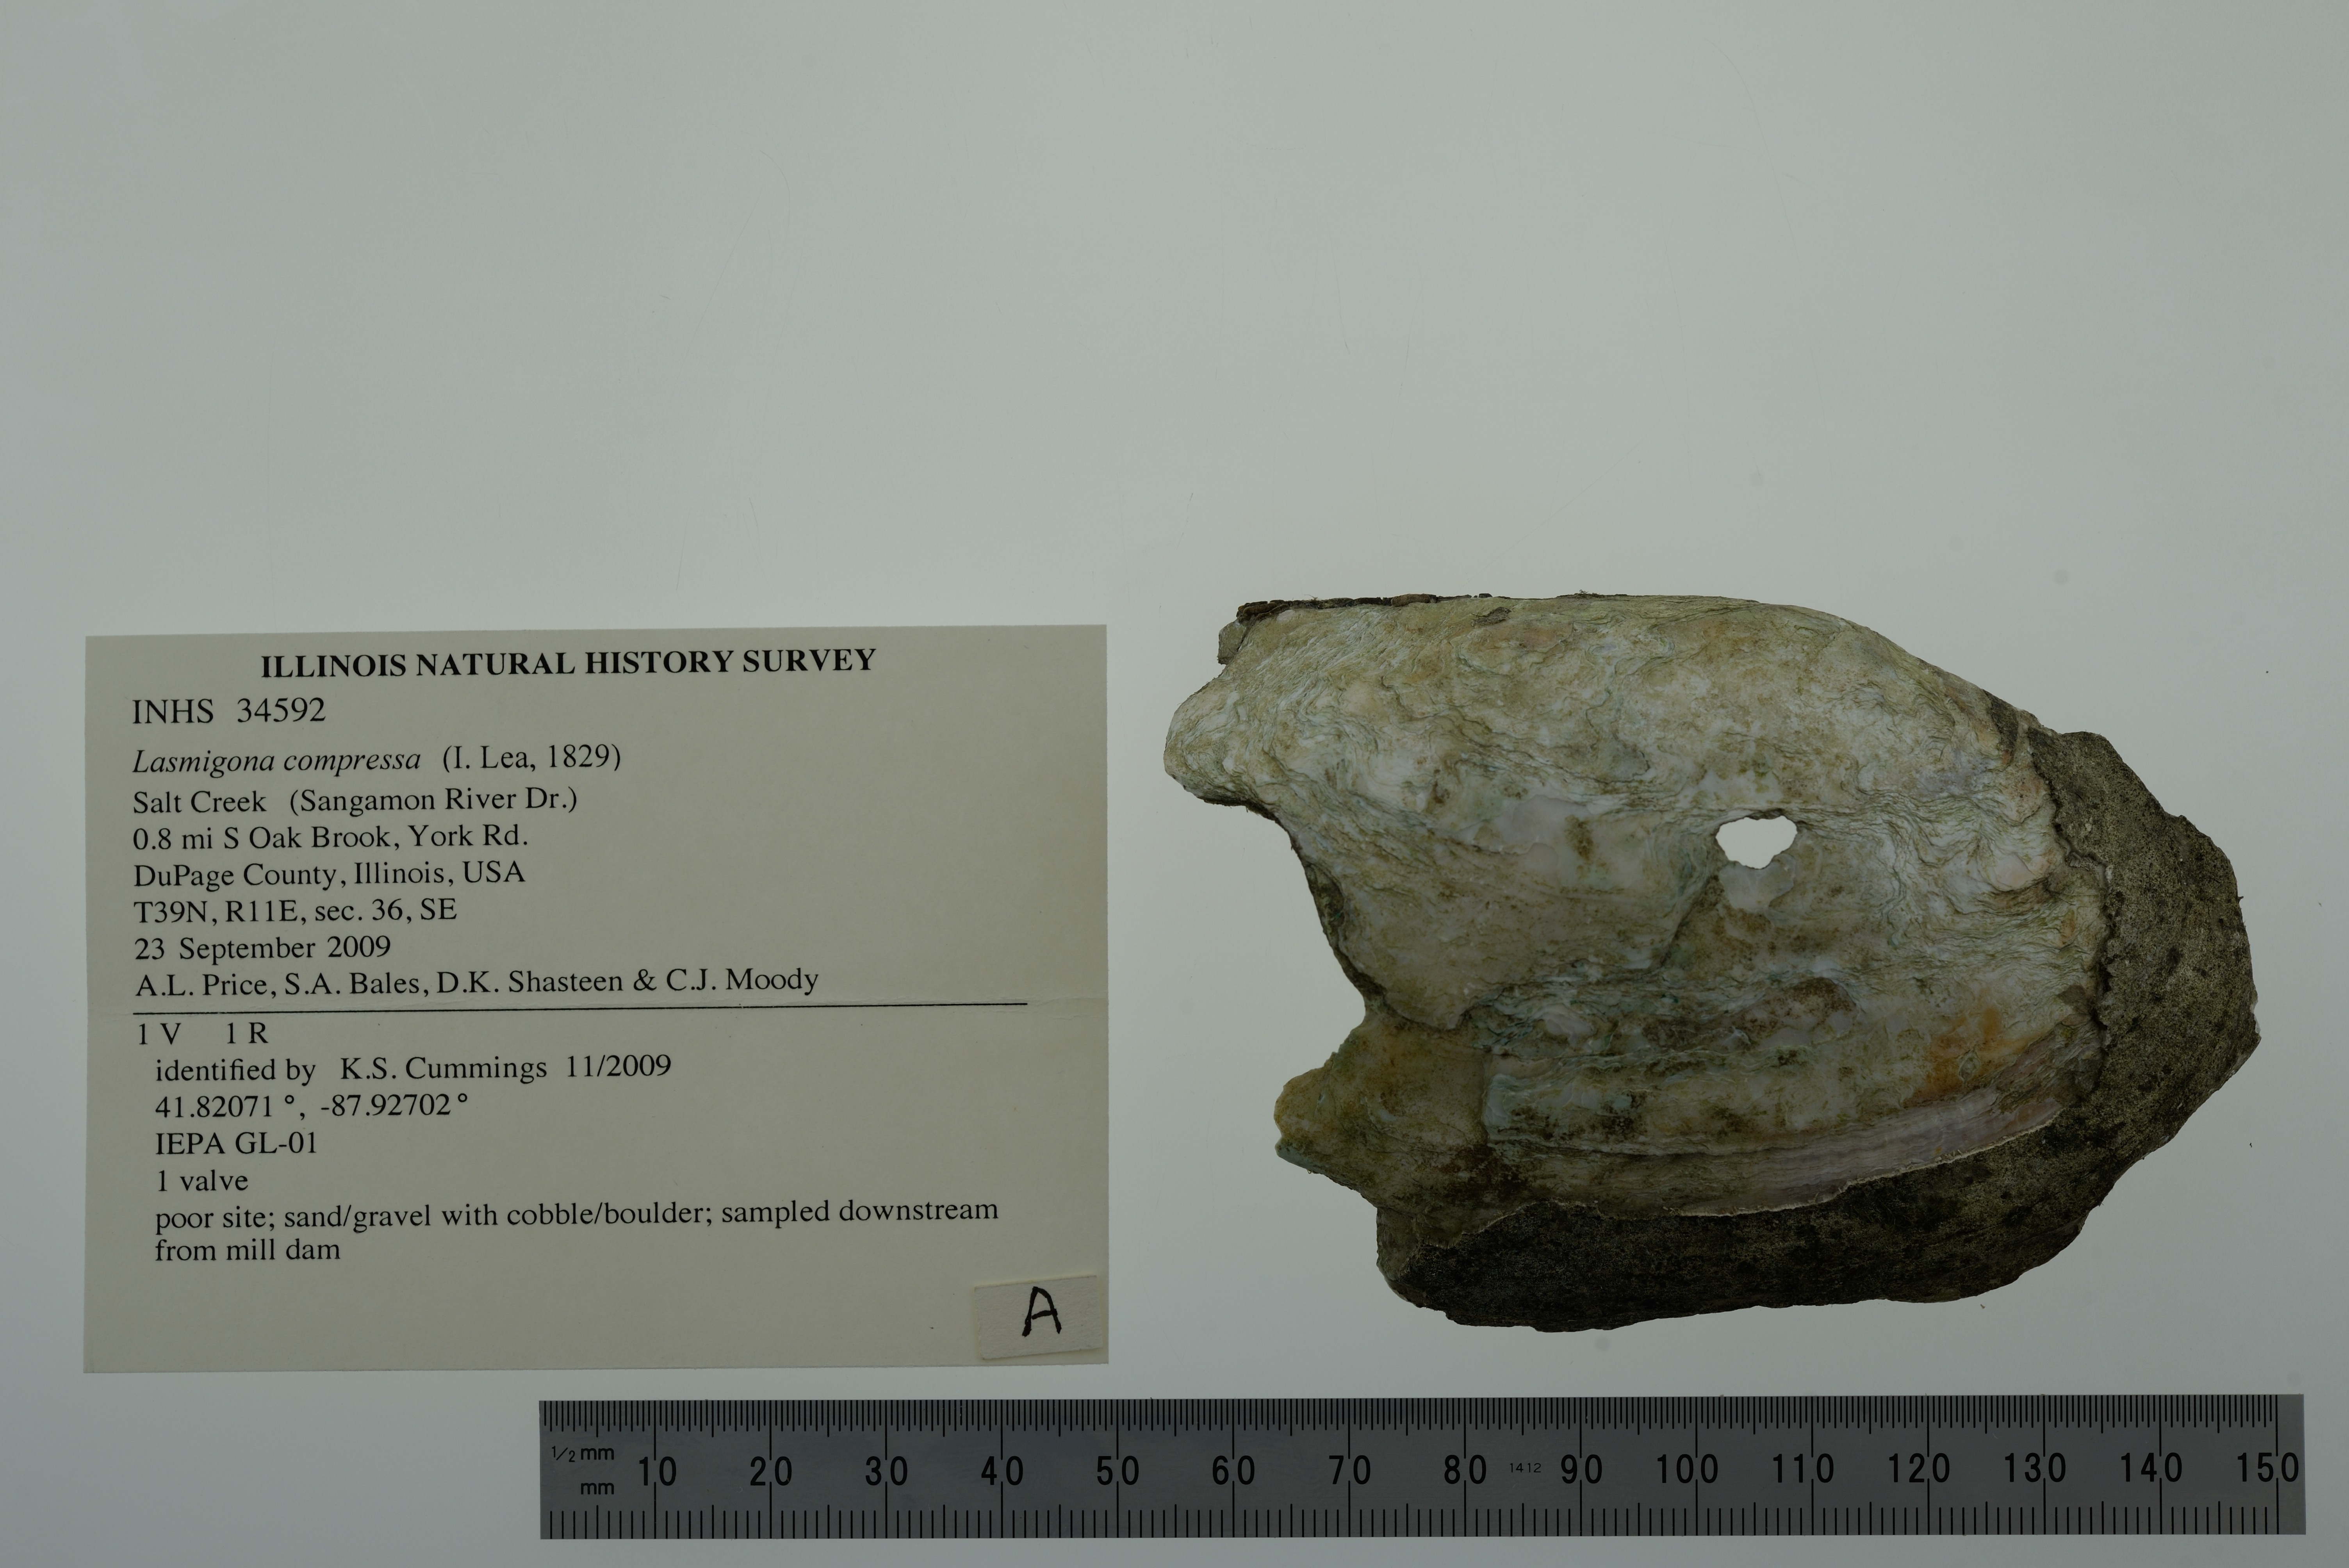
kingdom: Animalia
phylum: Mollusca
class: Gastropoda
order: Architaenioglossa
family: Viviparidae
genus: Callinina
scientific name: Callinina subpurpurea
